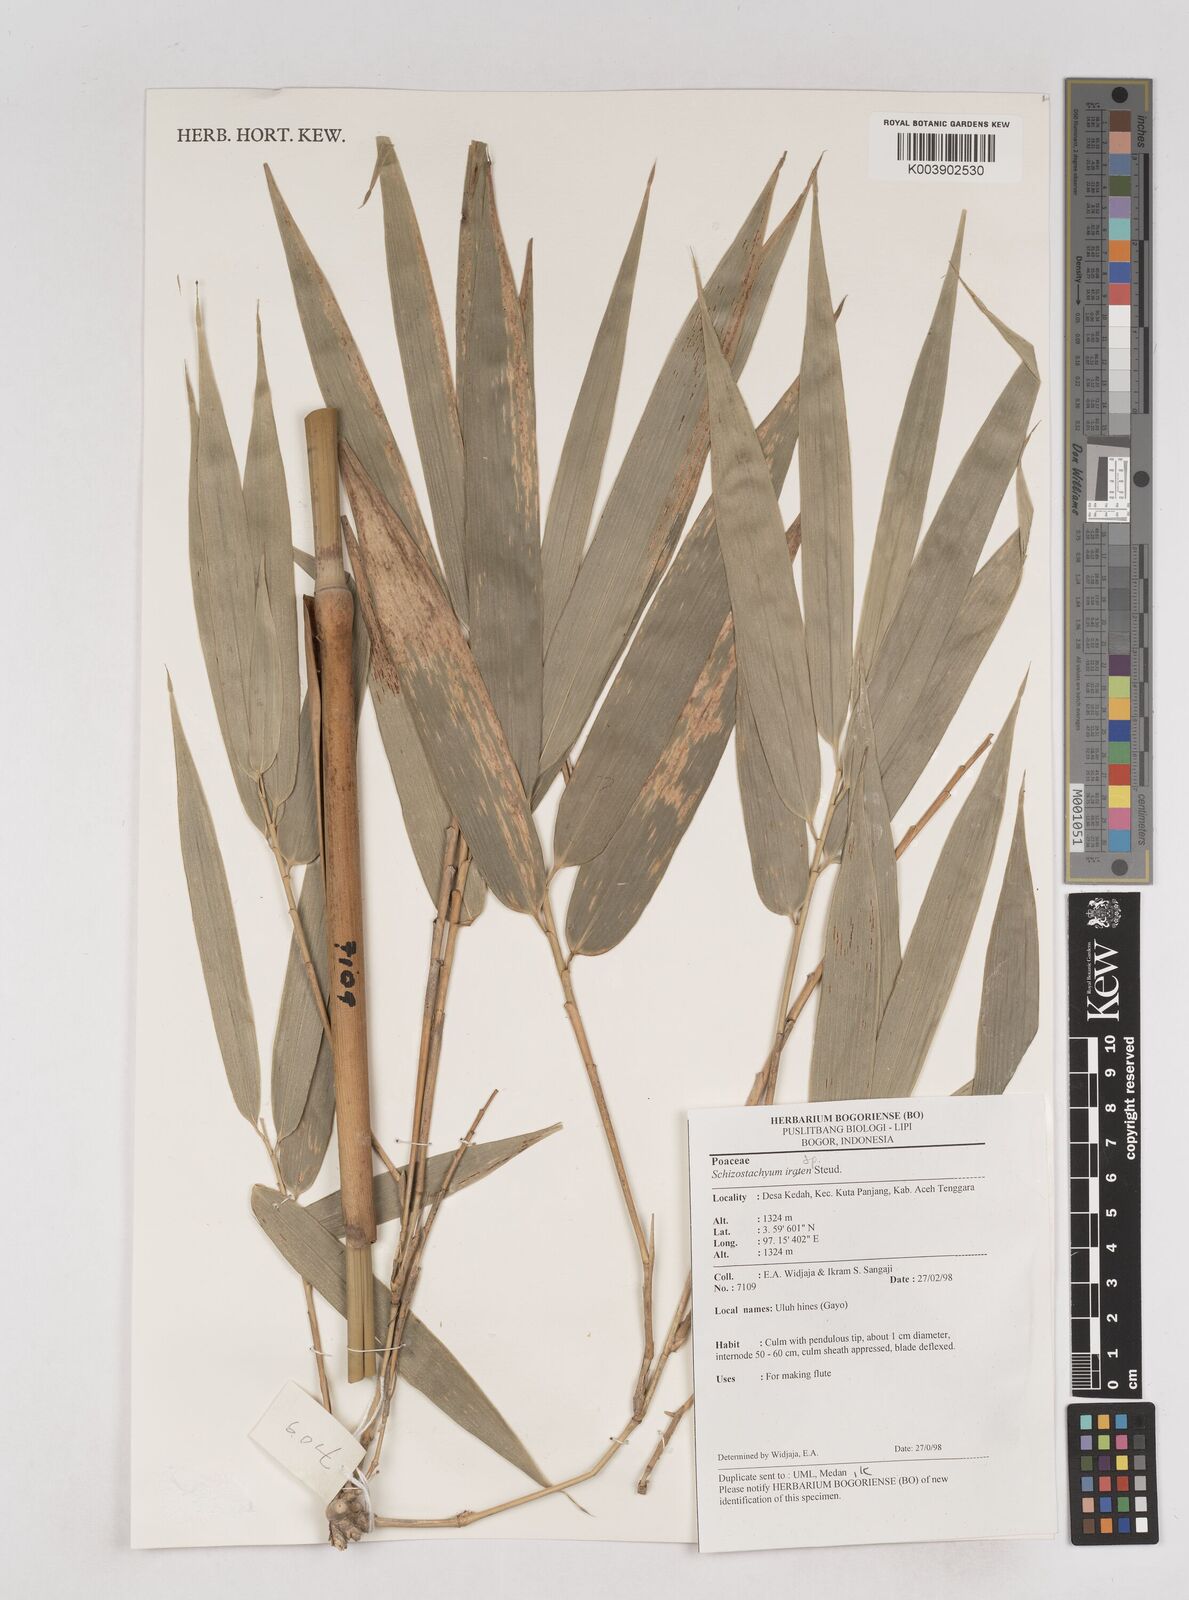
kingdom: Plantae
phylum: Tracheophyta
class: Liliopsida
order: Poales
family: Poaceae
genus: Schizostachyum
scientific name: Schizostachyum
